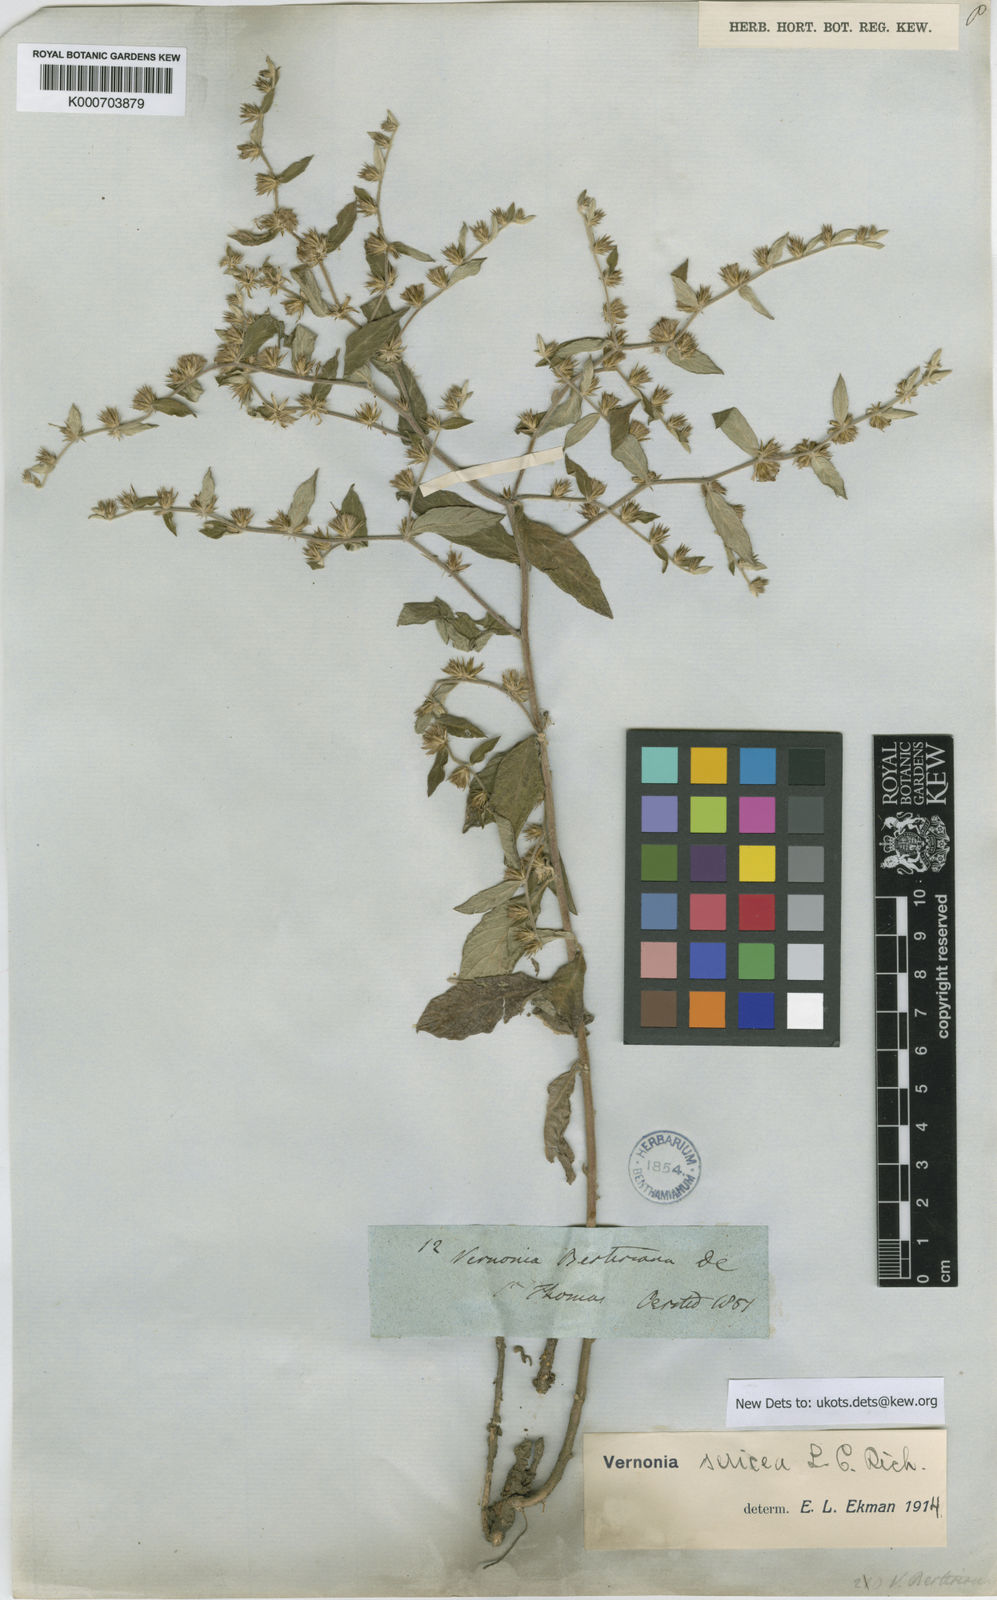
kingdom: Plantae
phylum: Tracheophyta
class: Magnoliopsida
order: Asterales
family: Asteraceae
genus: Lepidaploa
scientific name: Lepidaploa sericea
